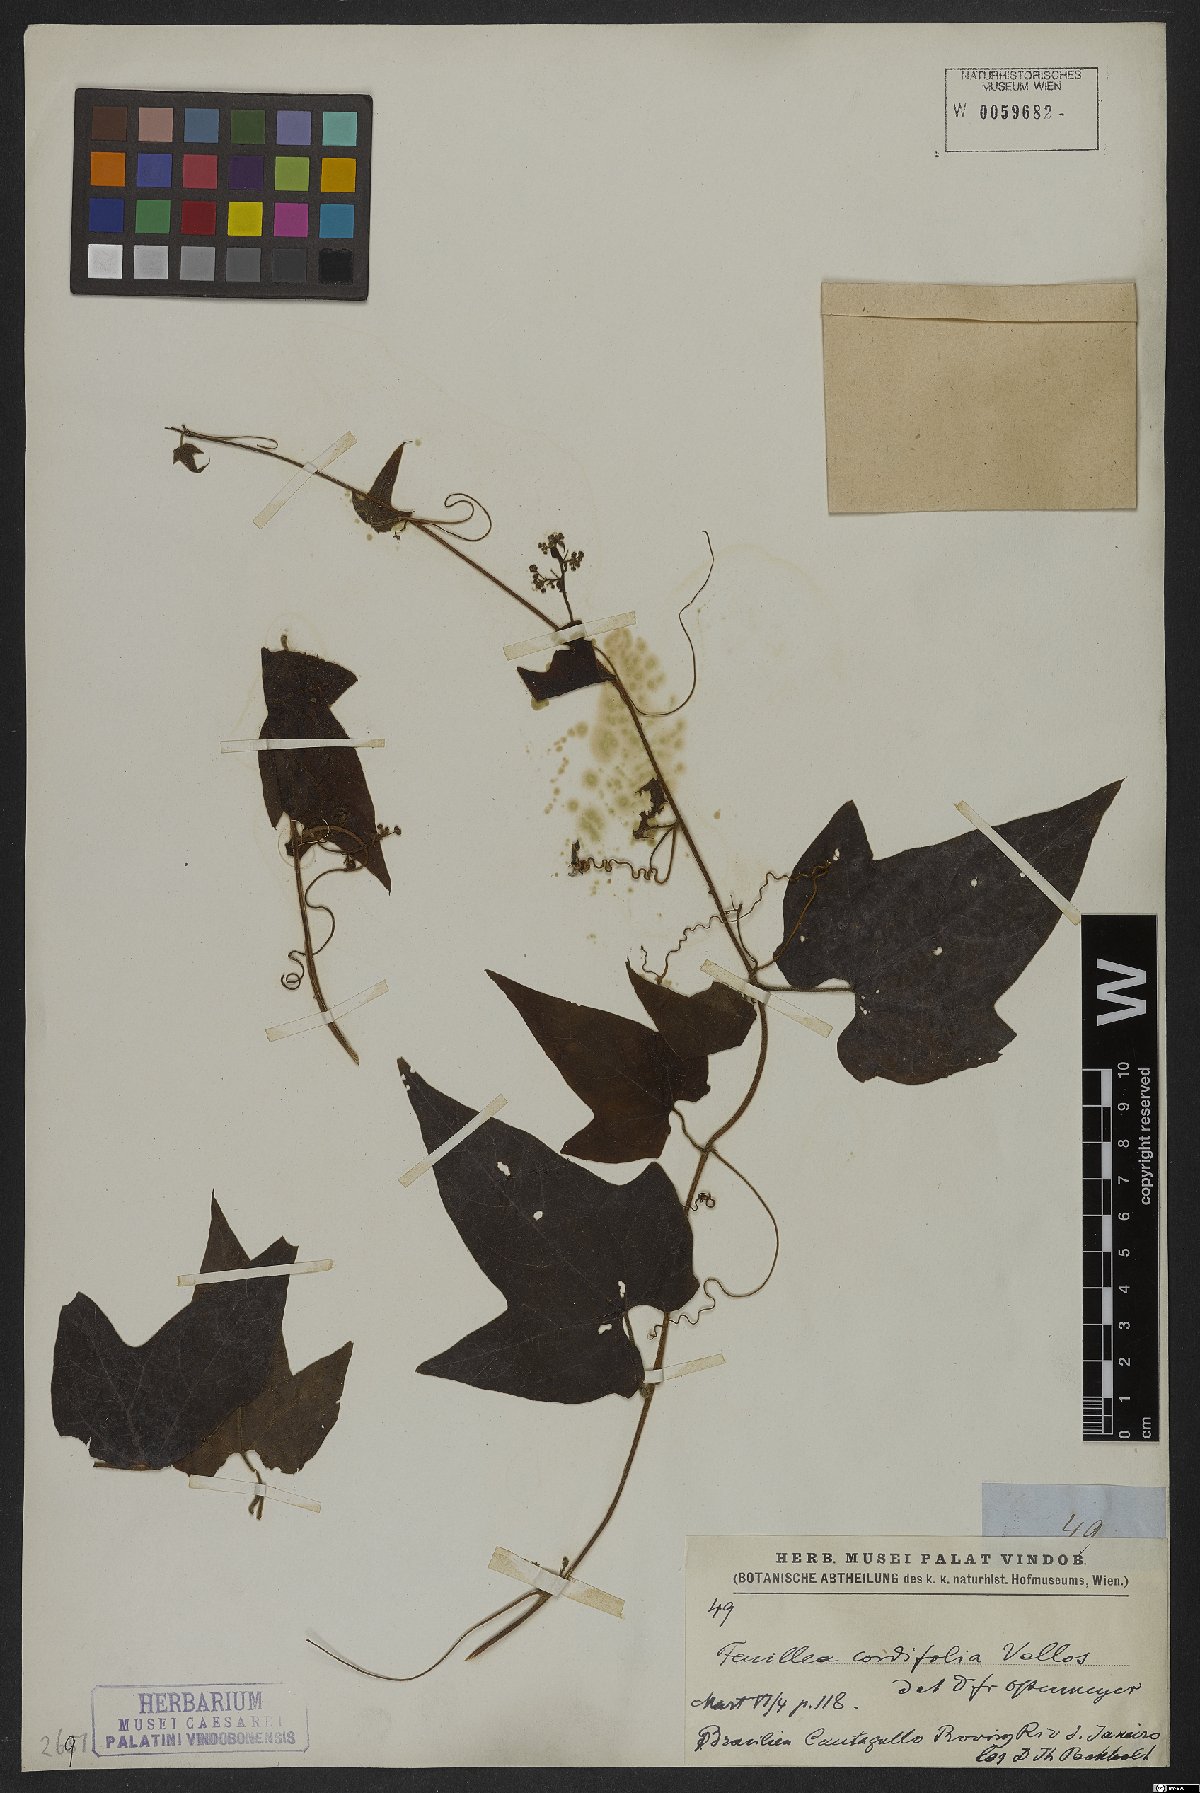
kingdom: Plantae
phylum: Tracheophyta
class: Magnoliopsida
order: Cucurbitales
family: Cucurbitaceae
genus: Fevillea
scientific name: Fevillea cordifolia
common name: Antidote-vine
